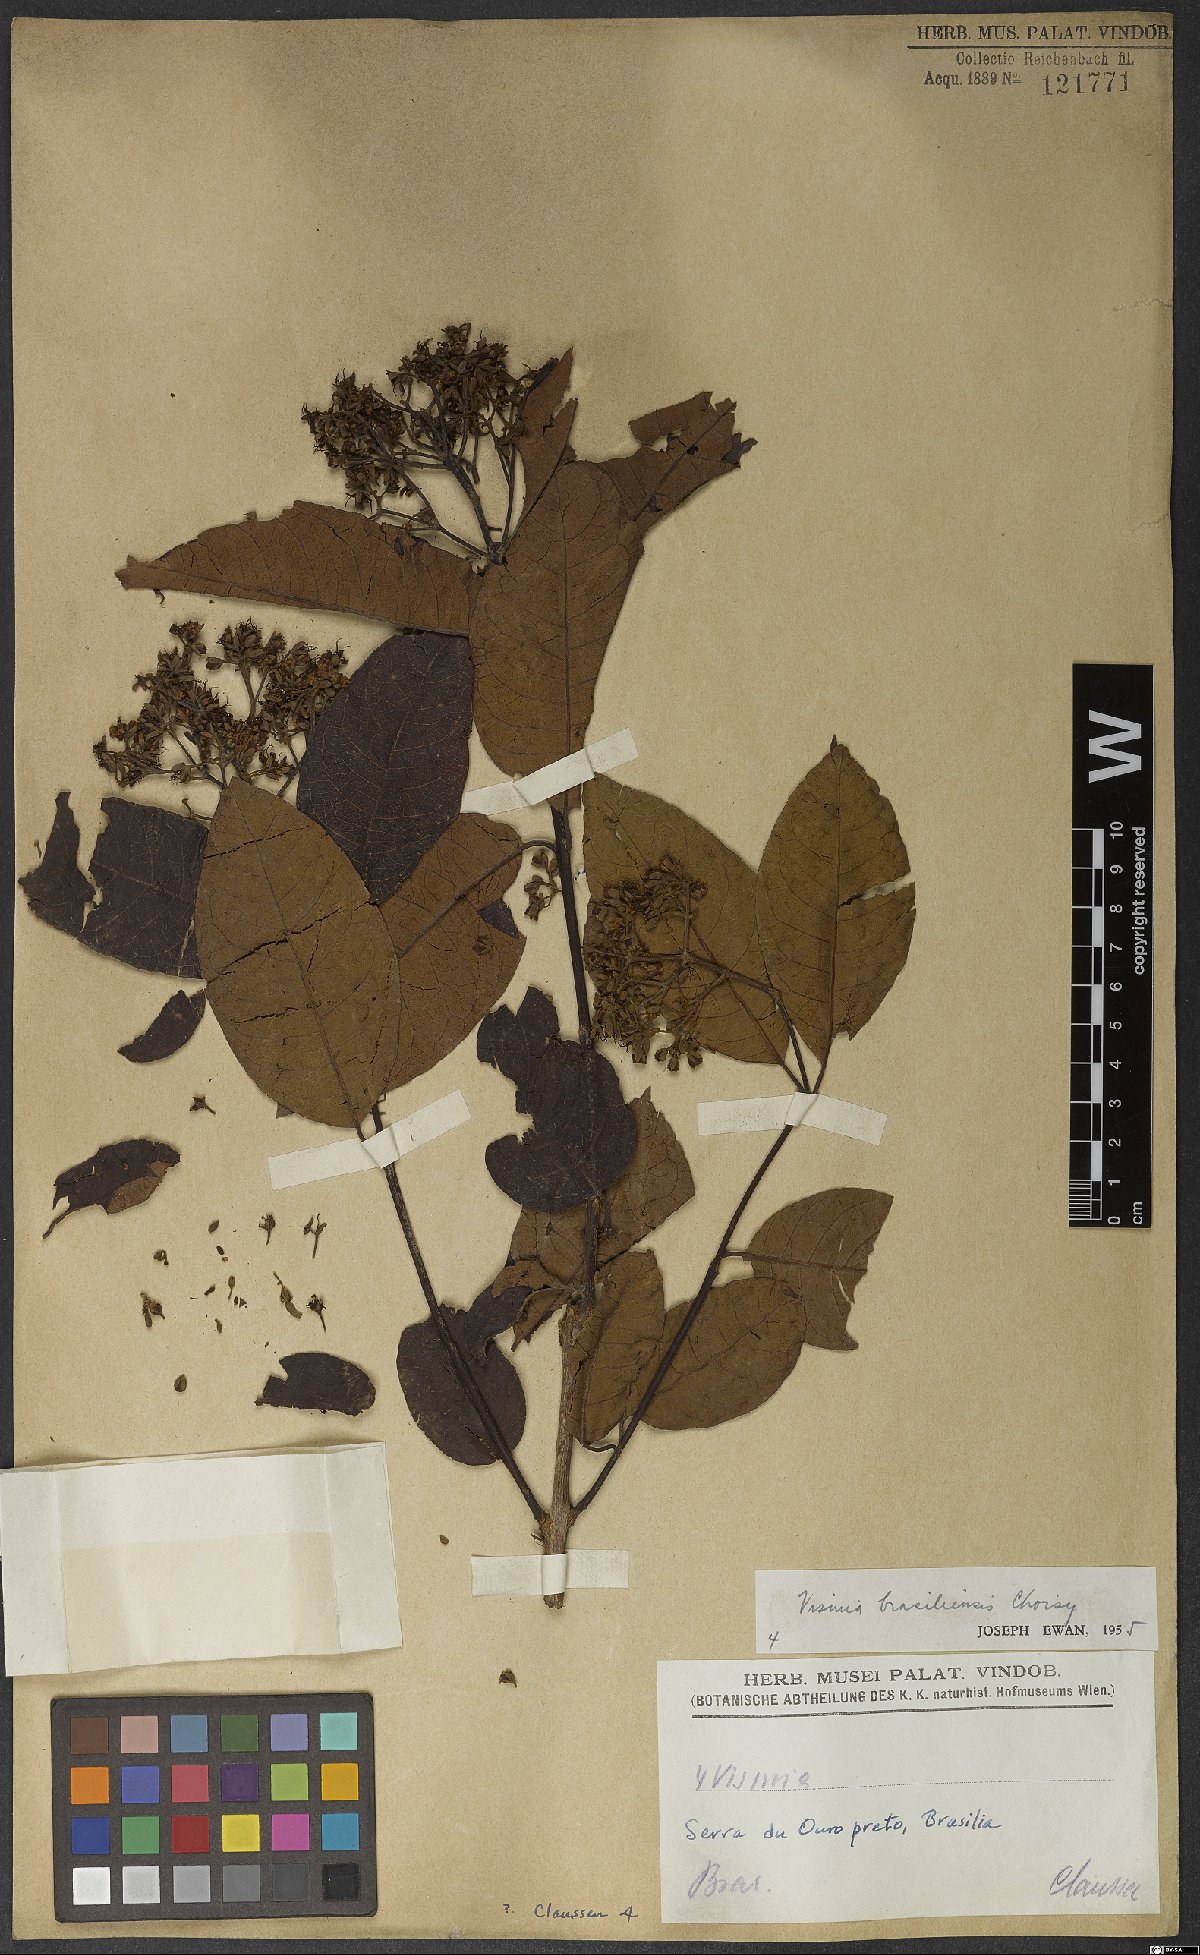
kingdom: Plantae
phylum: Tracheophyta
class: Magnoliopsida
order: Malpighiales
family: Hypericaceae
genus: Vismia
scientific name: Vismia brasiliensis
